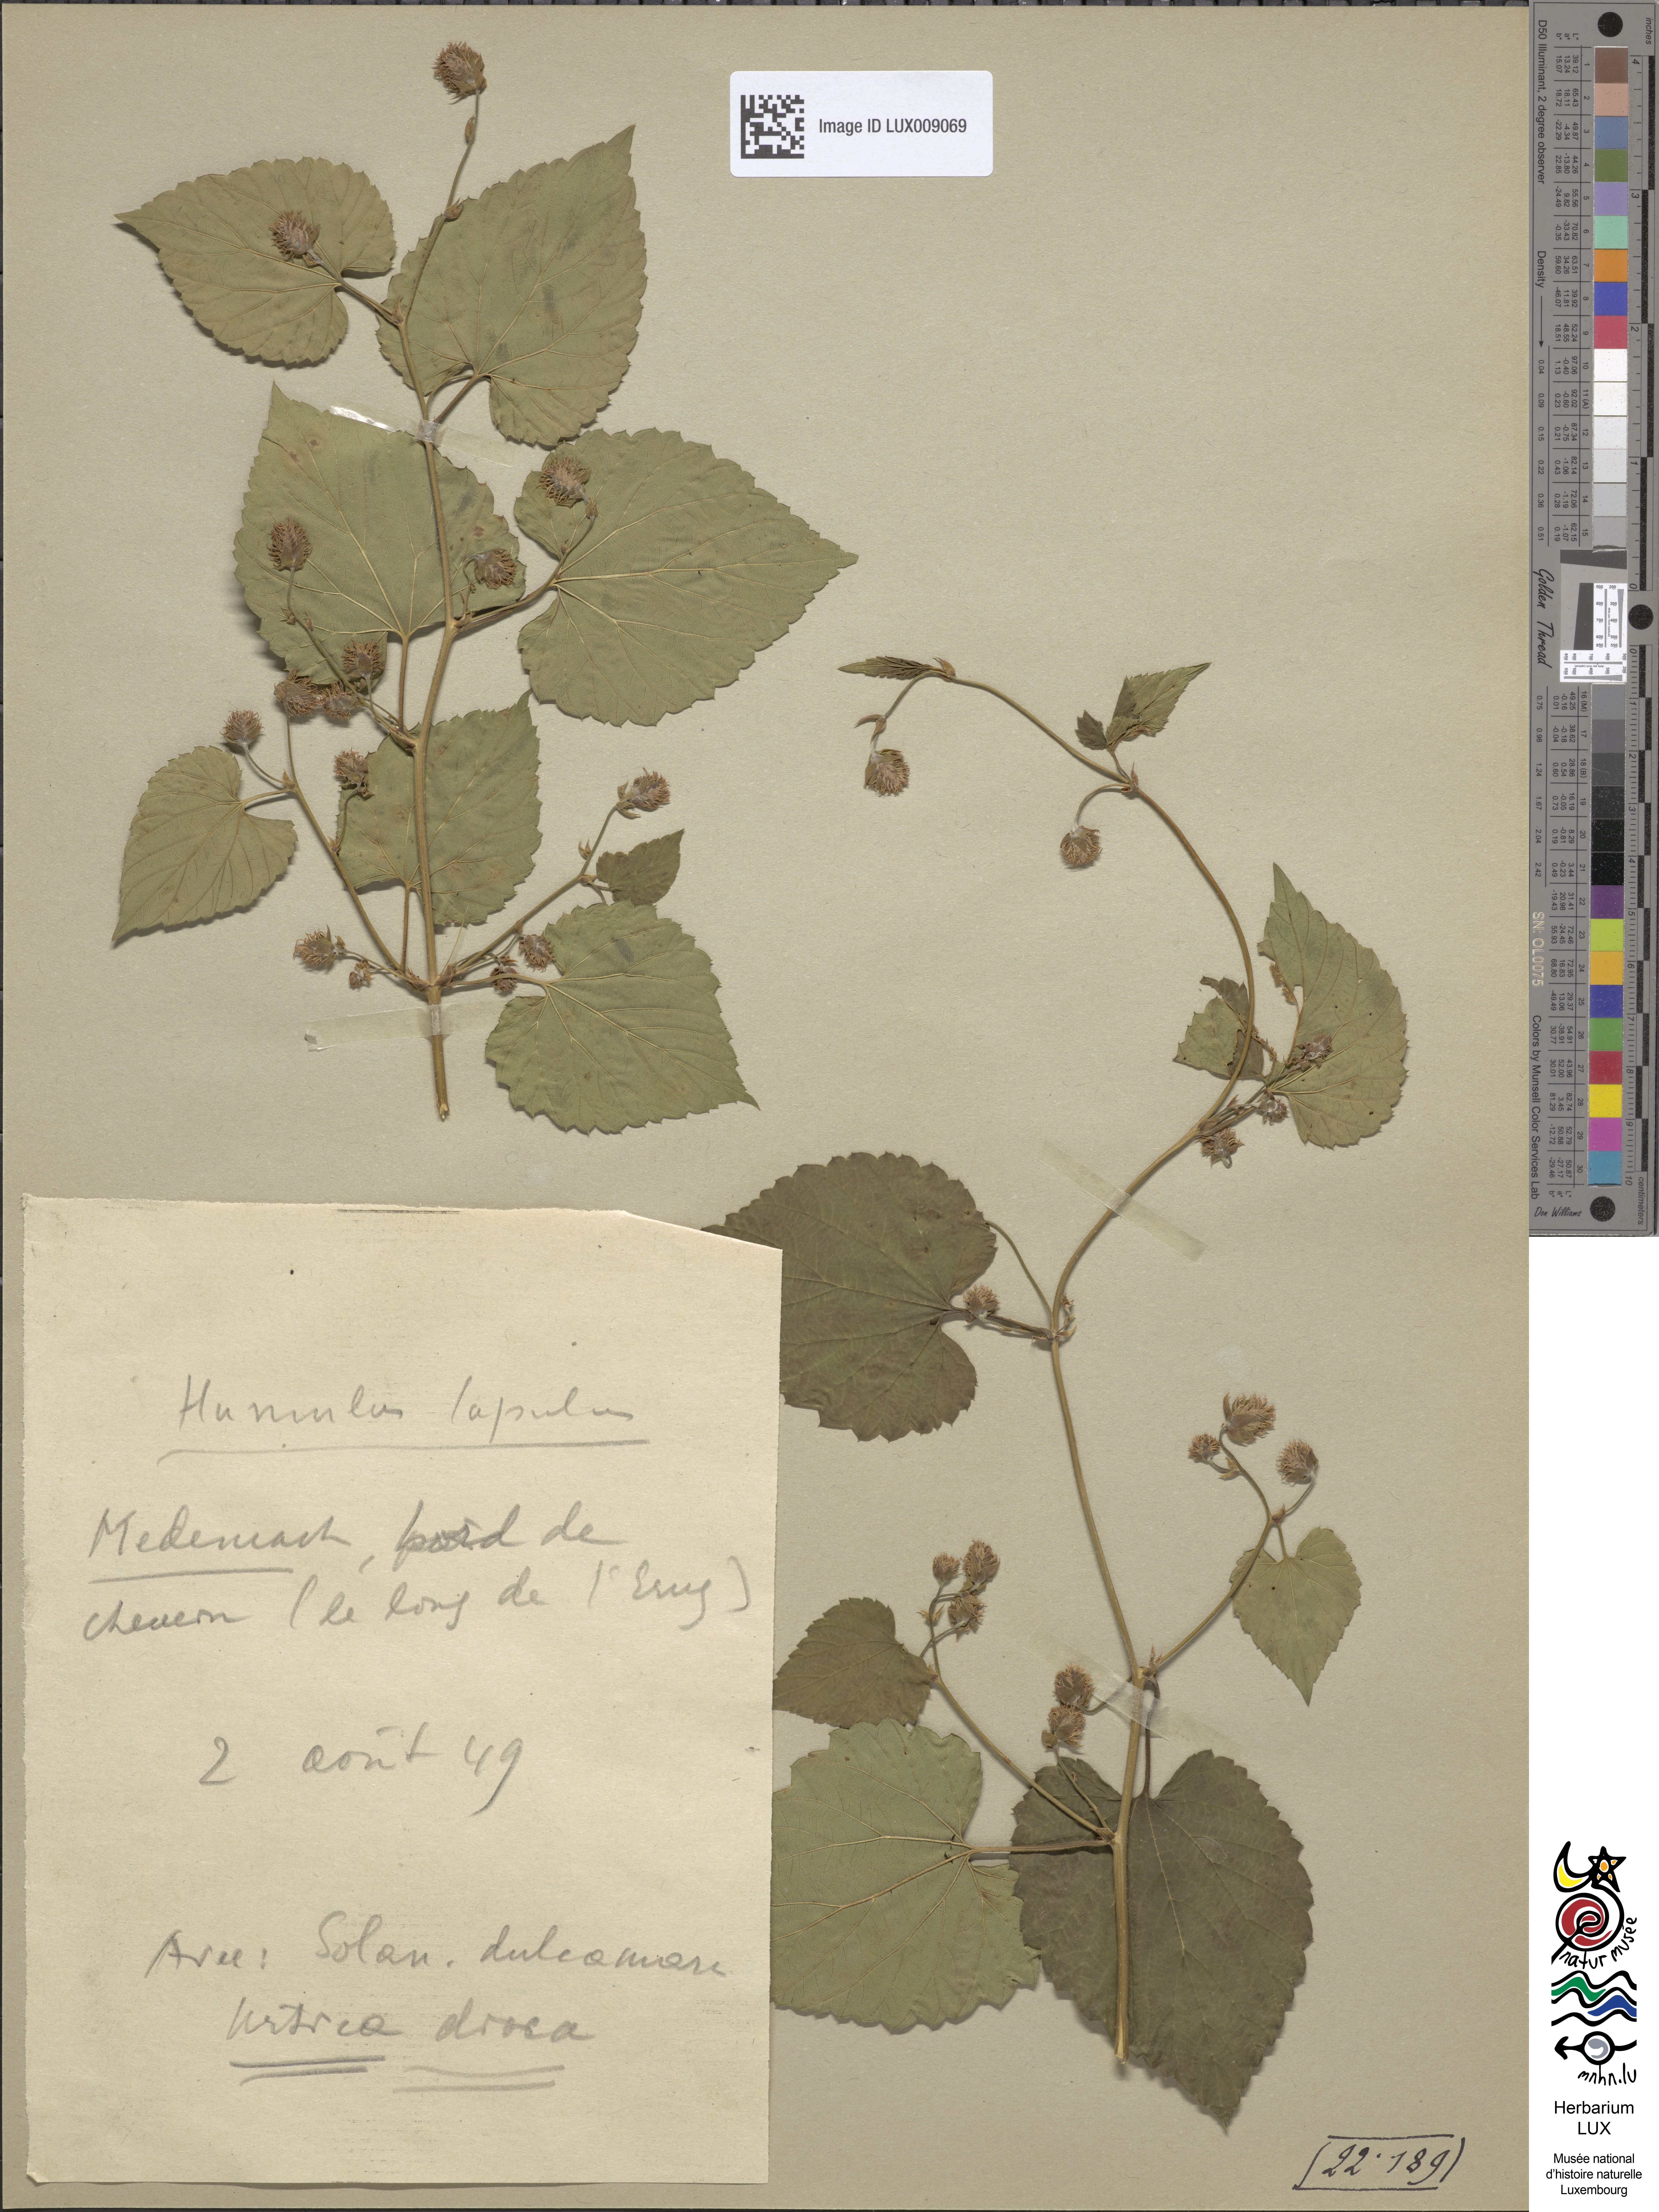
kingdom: Plantae
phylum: Tracheophyta
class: Magnoliopsida
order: Rosales
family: Cannabaceae
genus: Humulus
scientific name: Humulus lupulus
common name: Hop
